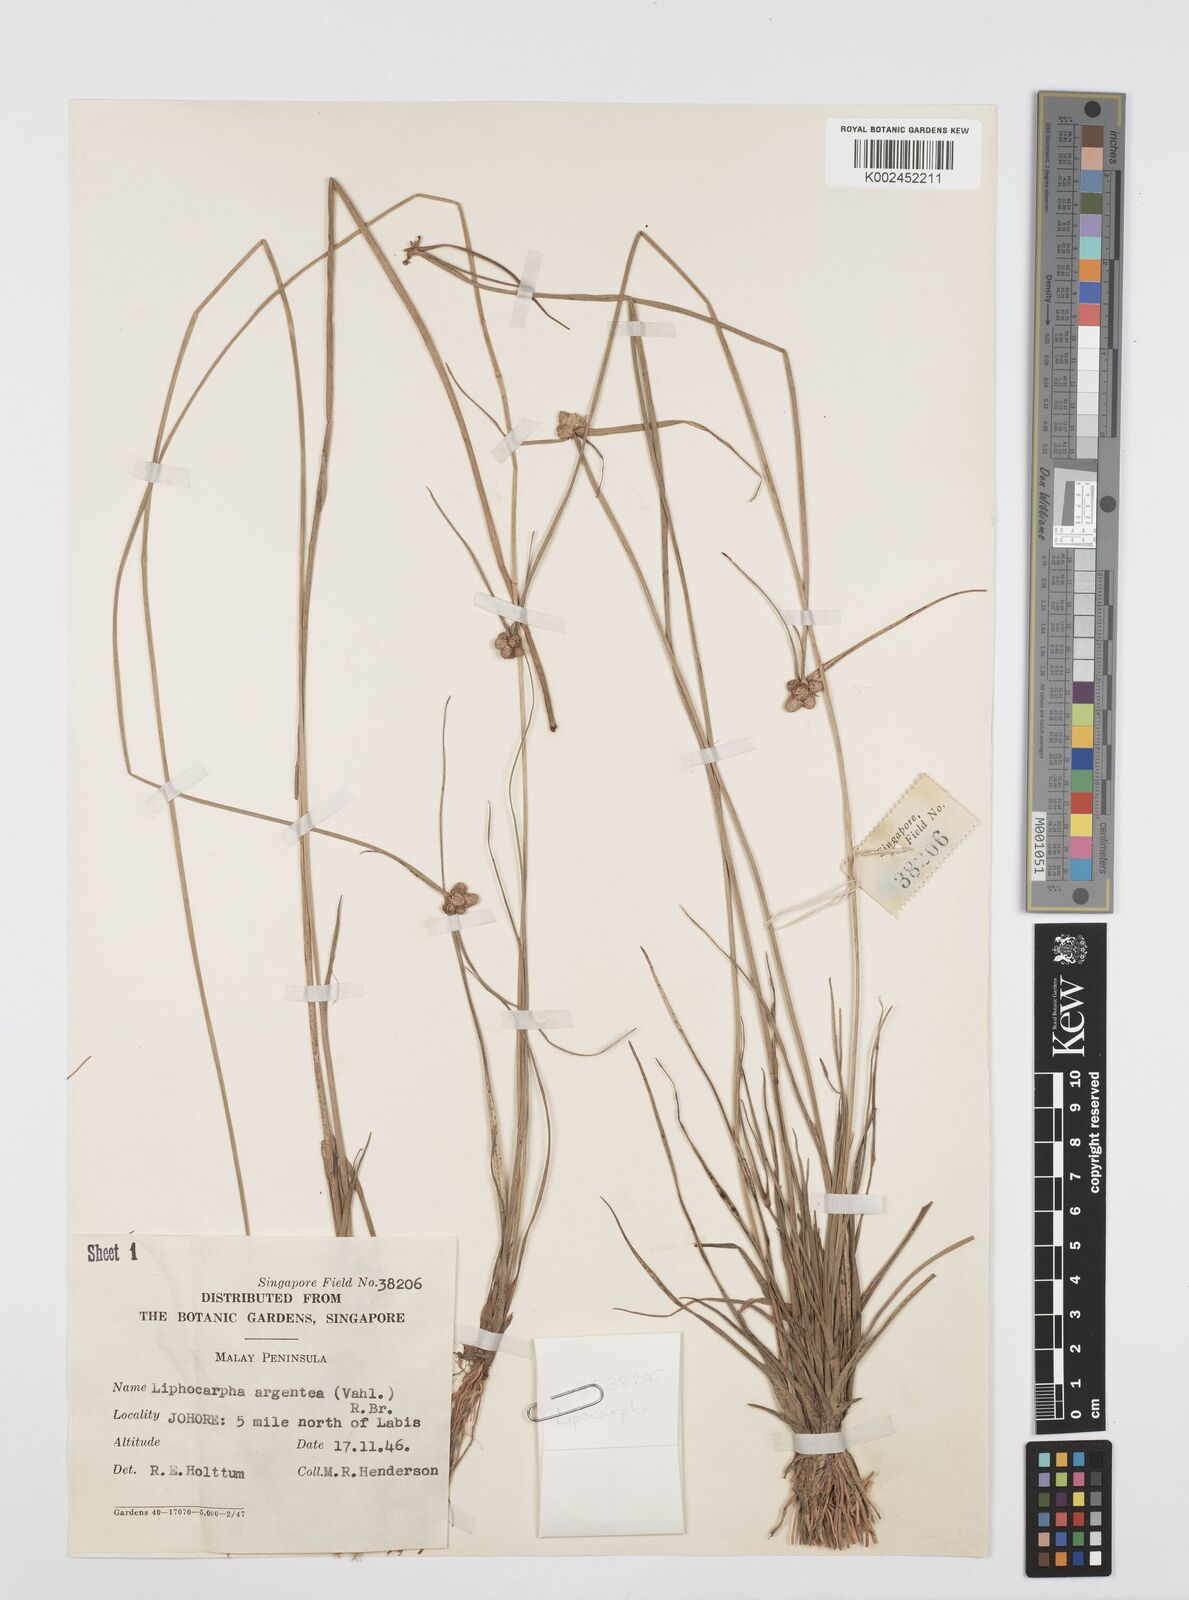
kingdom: Plantae
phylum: Tracheophyta
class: Liliopsida
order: Poales
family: Cyperaceae
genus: Cyperus
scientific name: Cyperus
